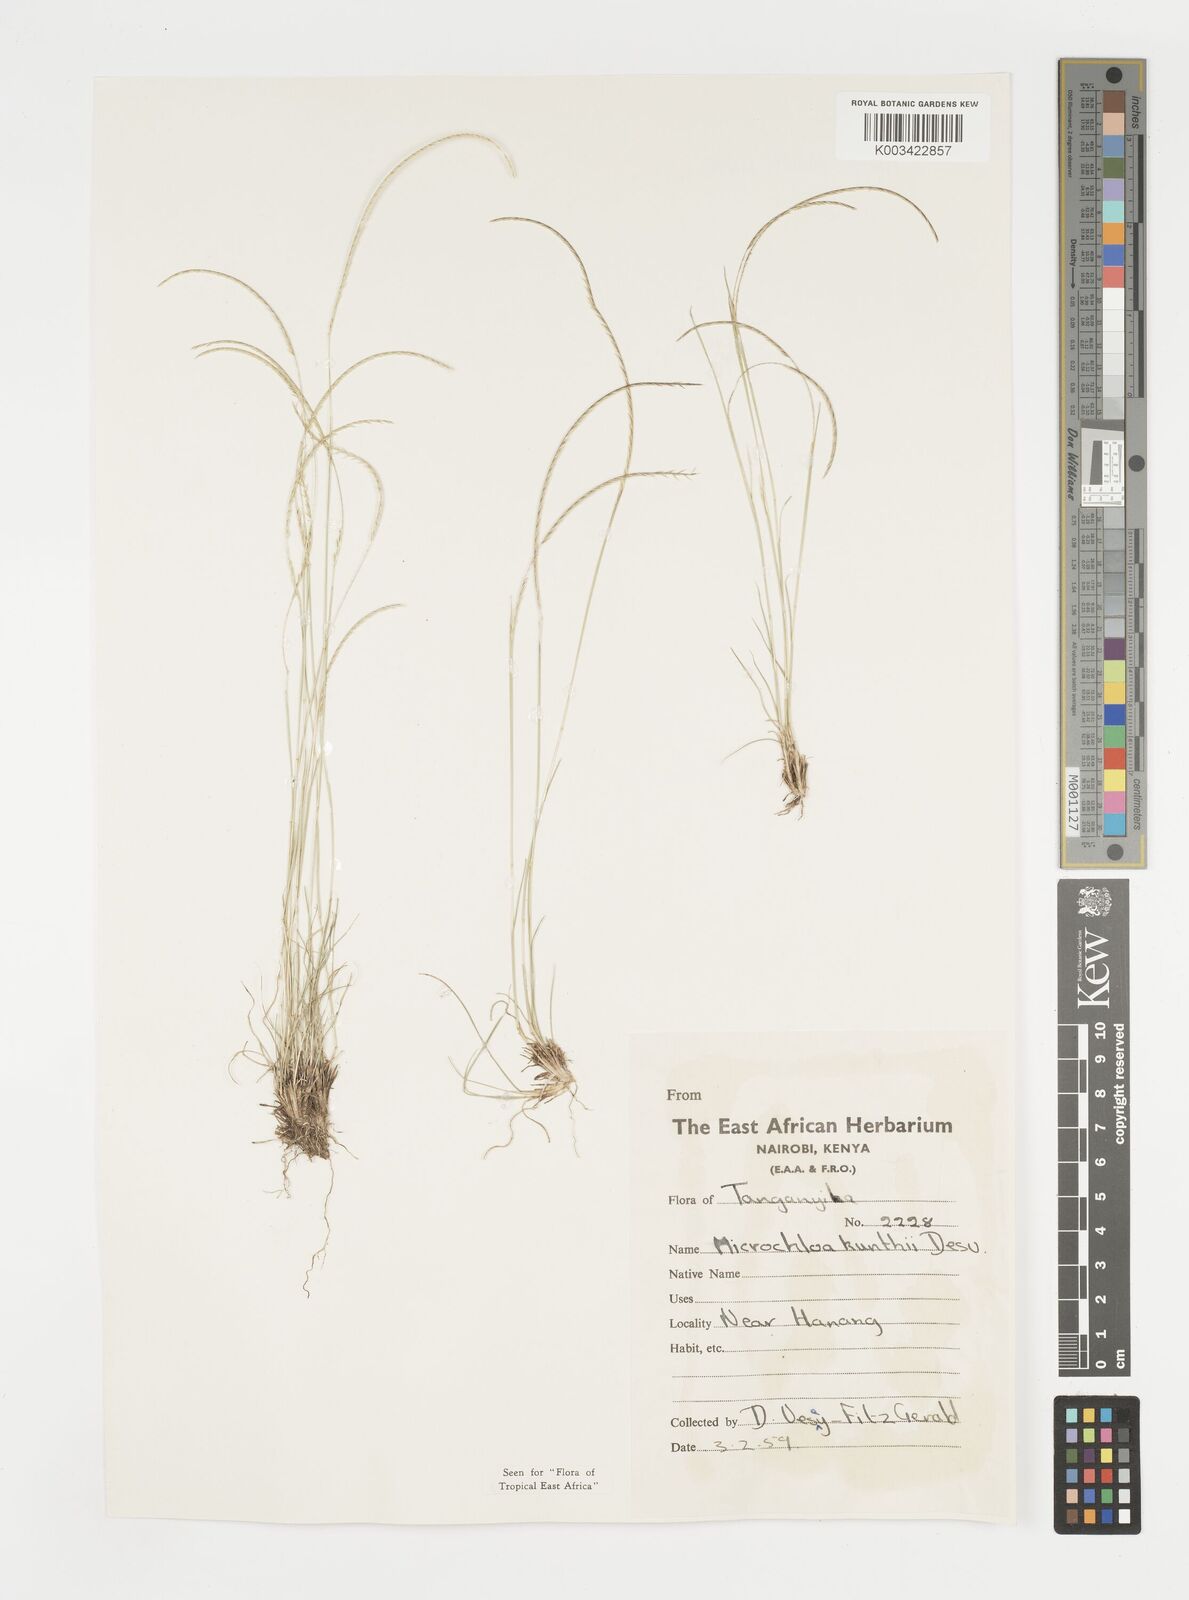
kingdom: Plantae
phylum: Tracheophyta
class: Liliopsida
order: Poales
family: Poaceae
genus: Microchloa
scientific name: Microchloa kunthii
